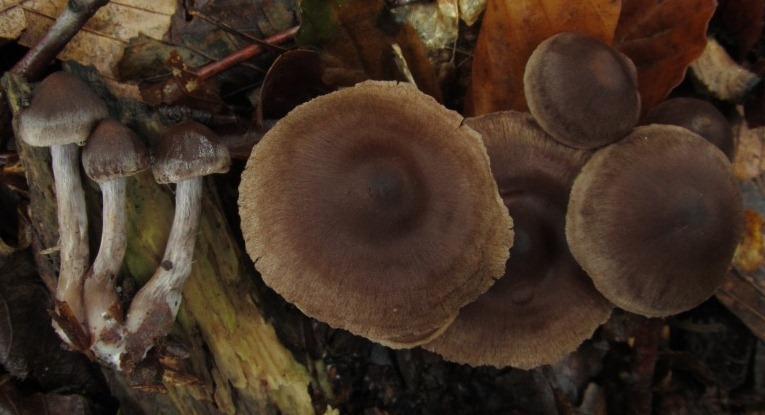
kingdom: Fungi
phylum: Basidiomycota
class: Agaricomycetes
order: Agaricales
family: Cortinariaceae
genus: Cortinarius
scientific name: Cortinarius decipiens
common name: mørkpuklet slørhat
